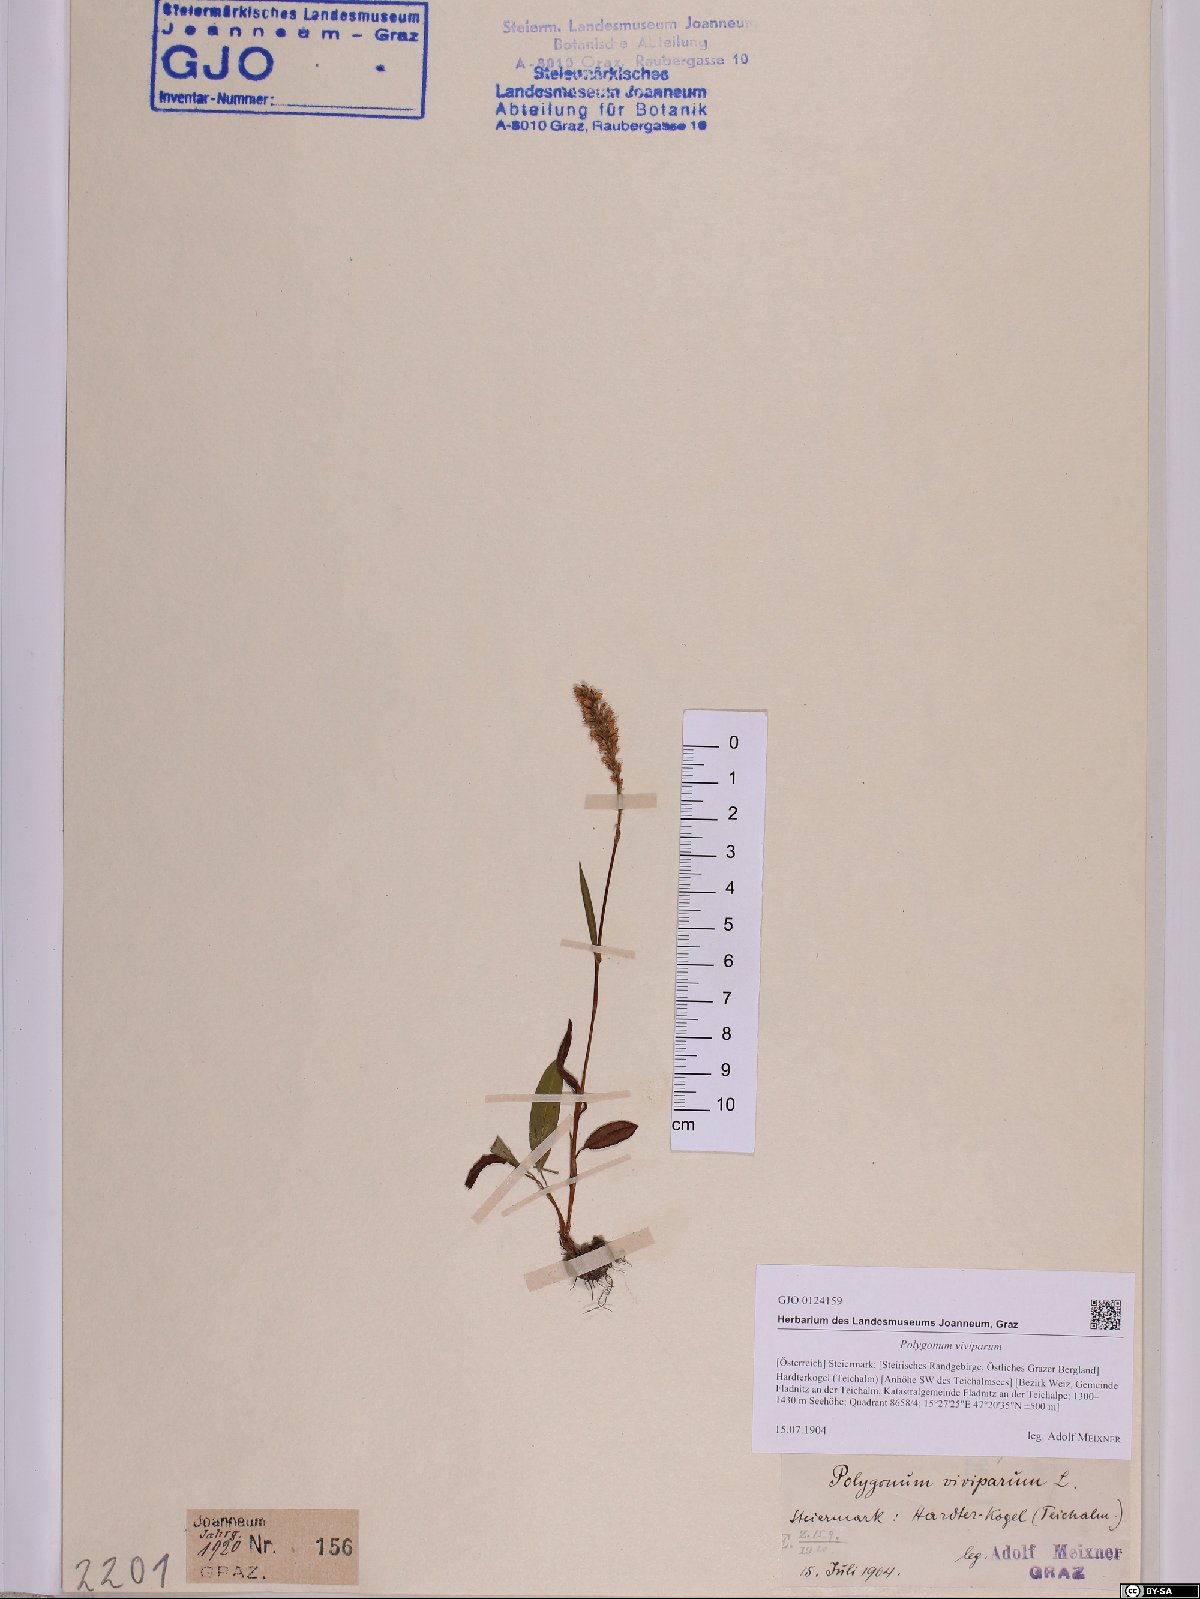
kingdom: Plantae
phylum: Tracheophyta
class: Magnoliopsida
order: Caryophyllales
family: Polygonaceae
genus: Bistorta
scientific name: Bistorta vivipara
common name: Alpine bistort
